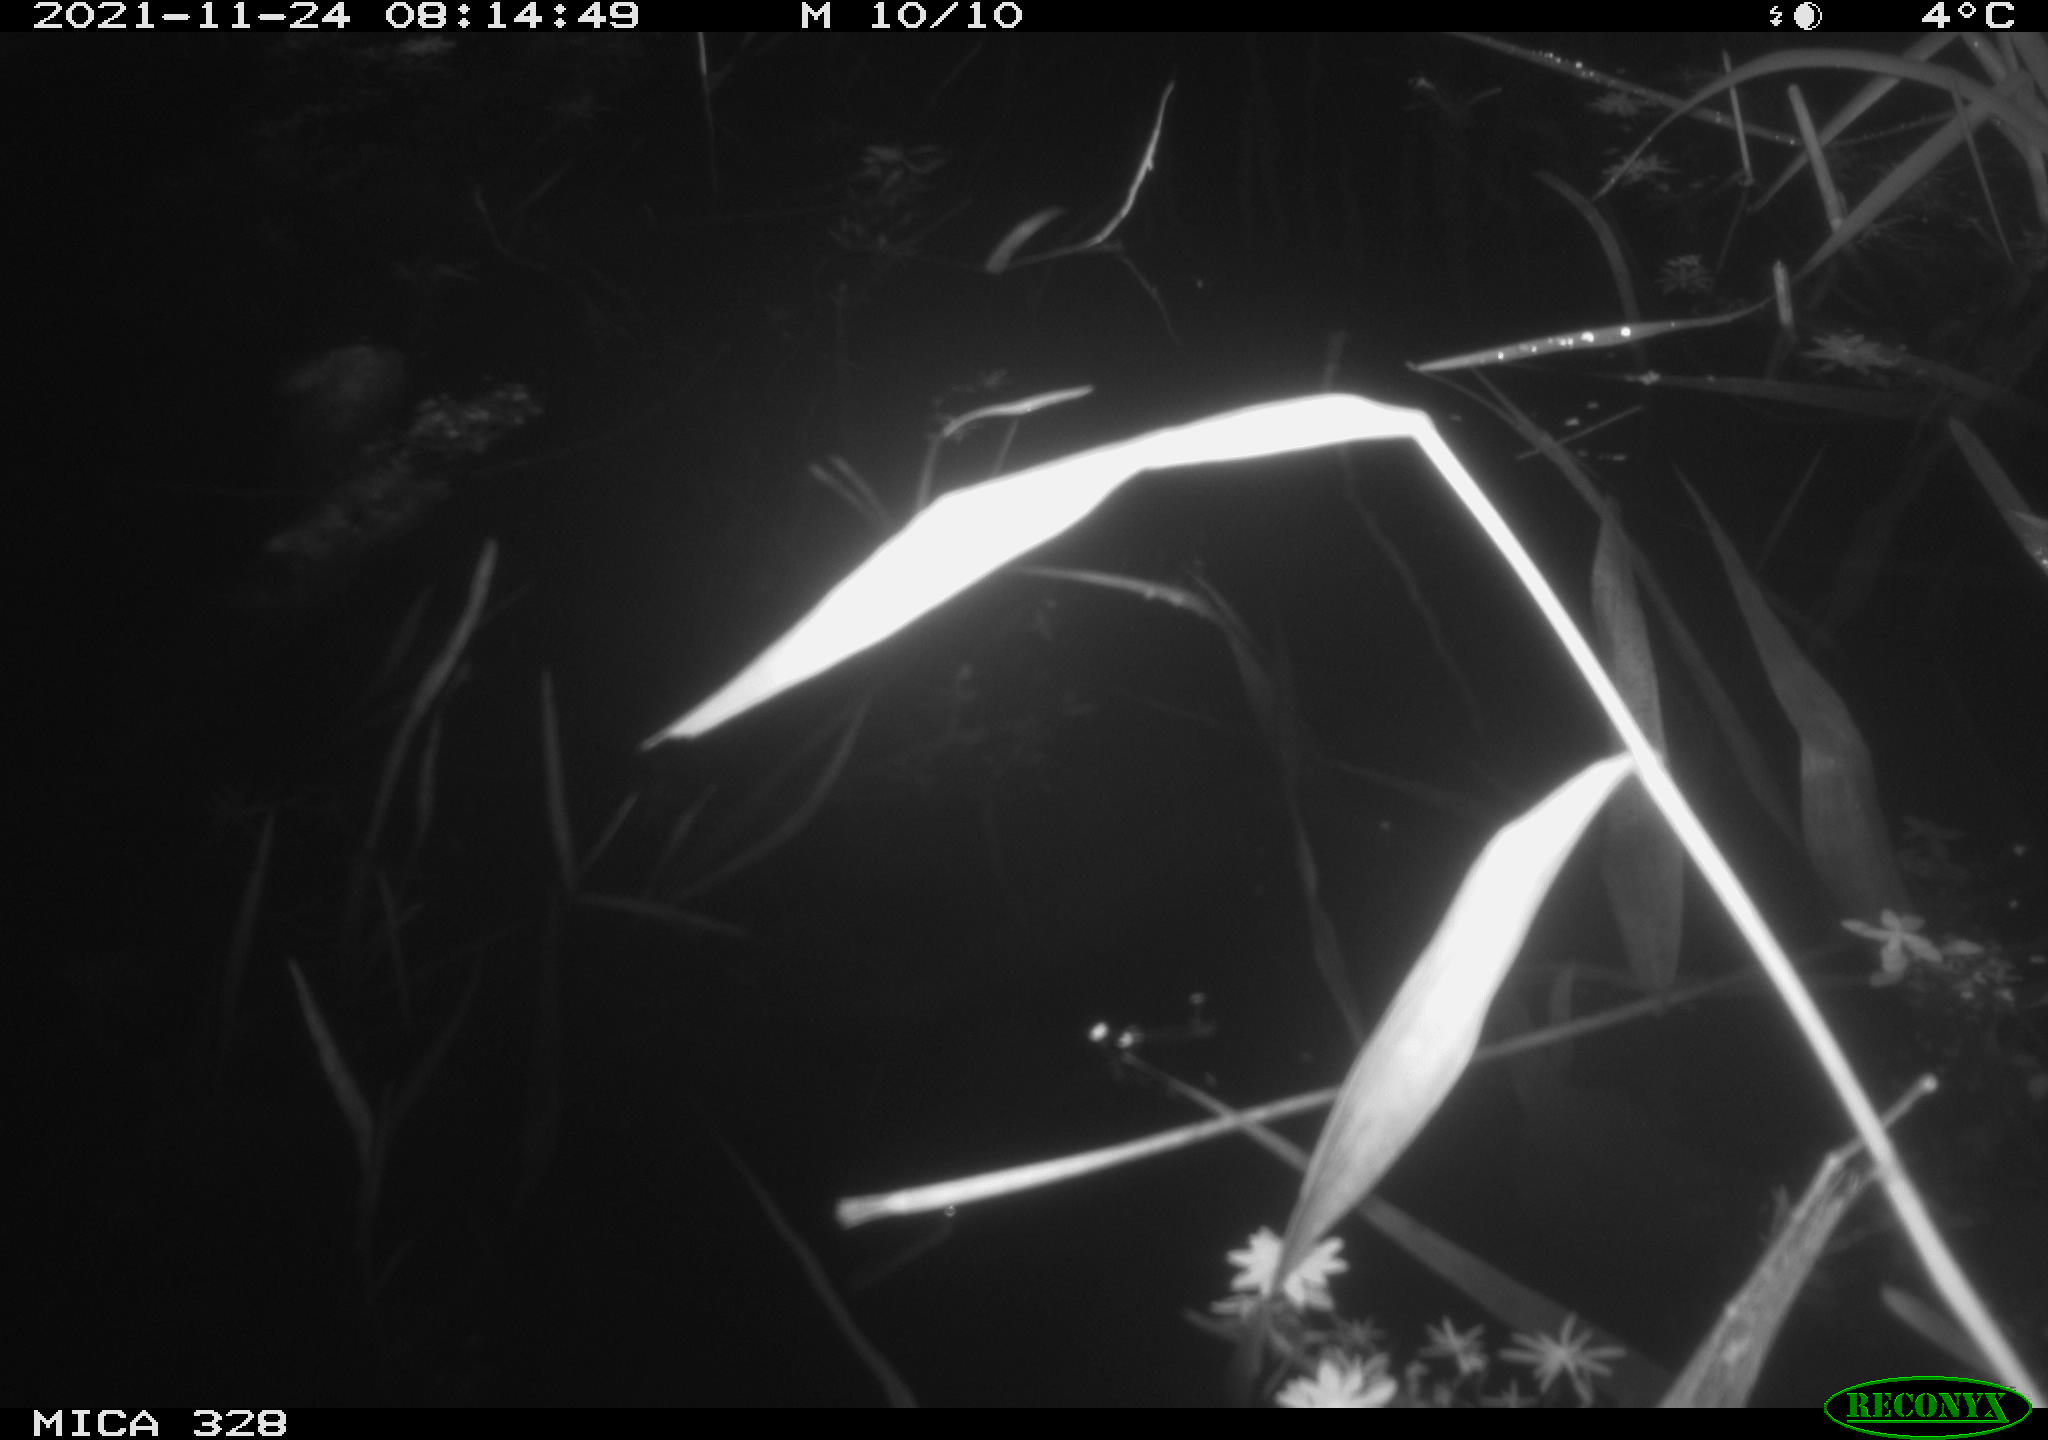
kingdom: Animalia
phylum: Chordata
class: Aves
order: Gruiformes
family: Rallidae
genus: Gallinula
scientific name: Gallinula chloropus
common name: Common moorhen
